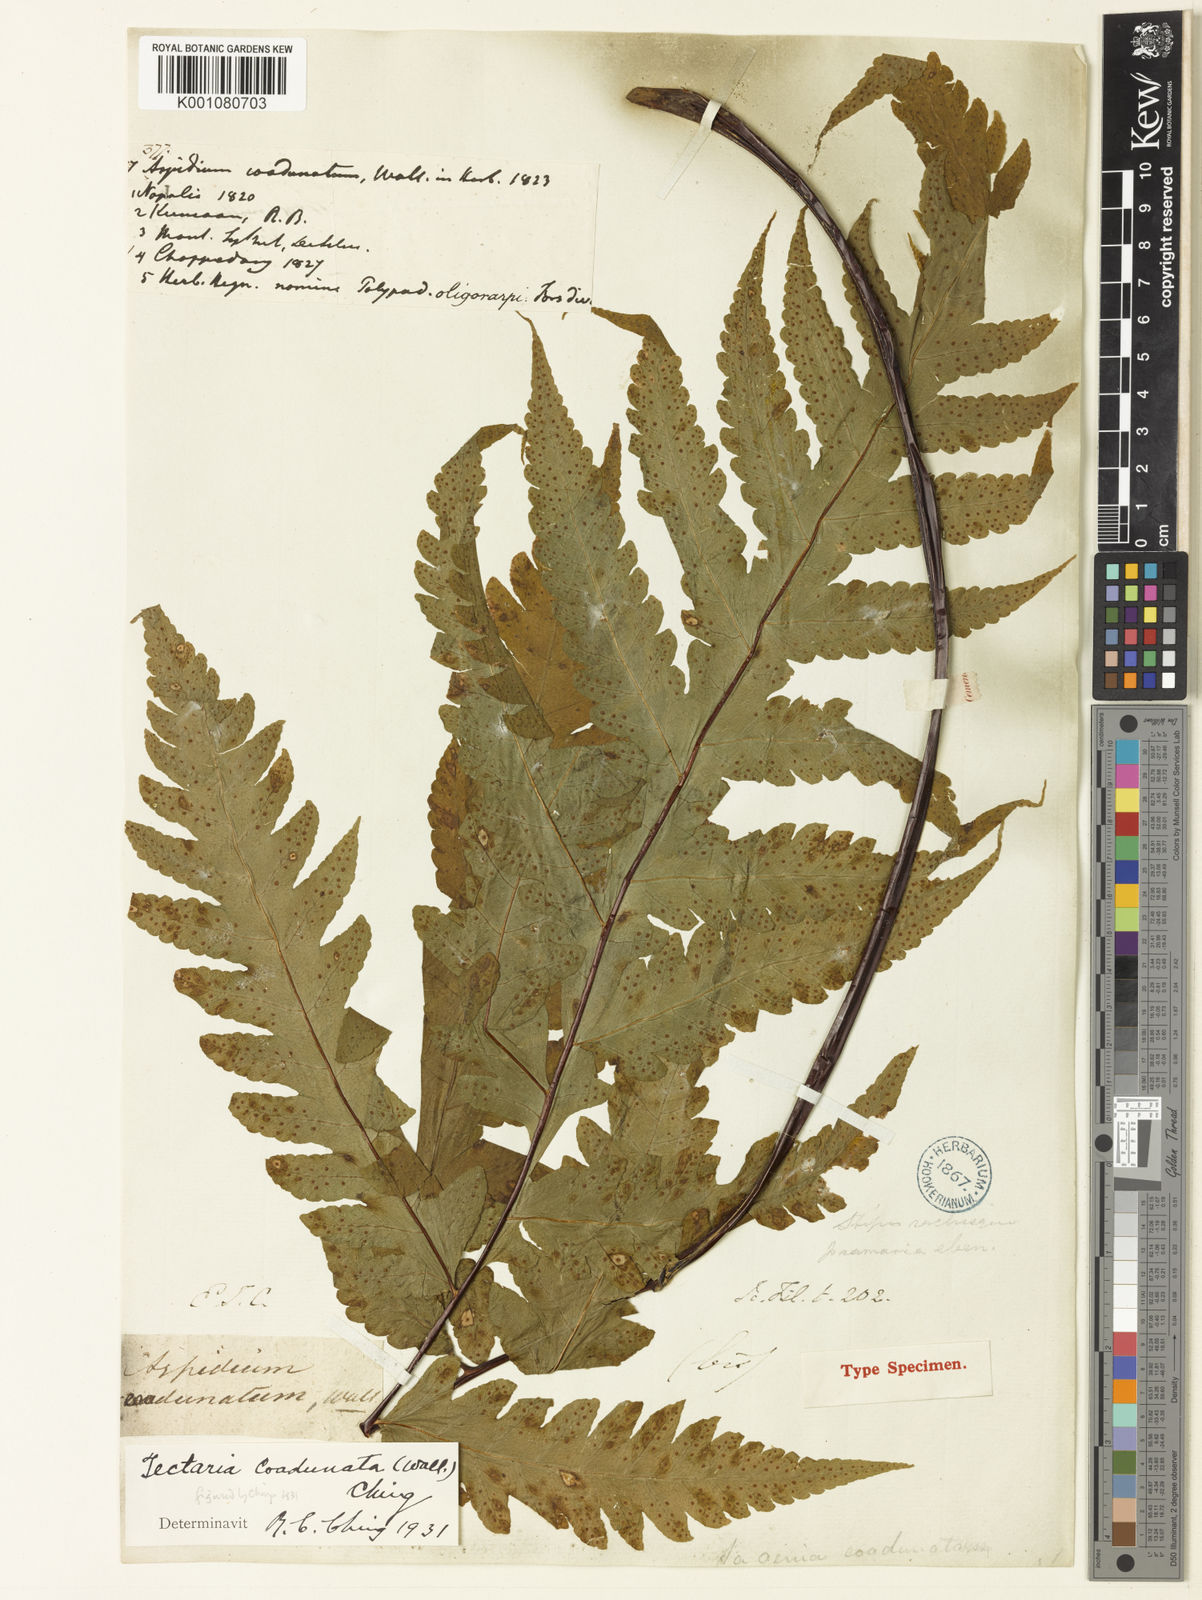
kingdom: Plantae
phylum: Tracheophyta
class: Polypodiopsida
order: Polypodiales
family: Tectariaceae
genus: Tectaria
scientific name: Tectaria coadunata
